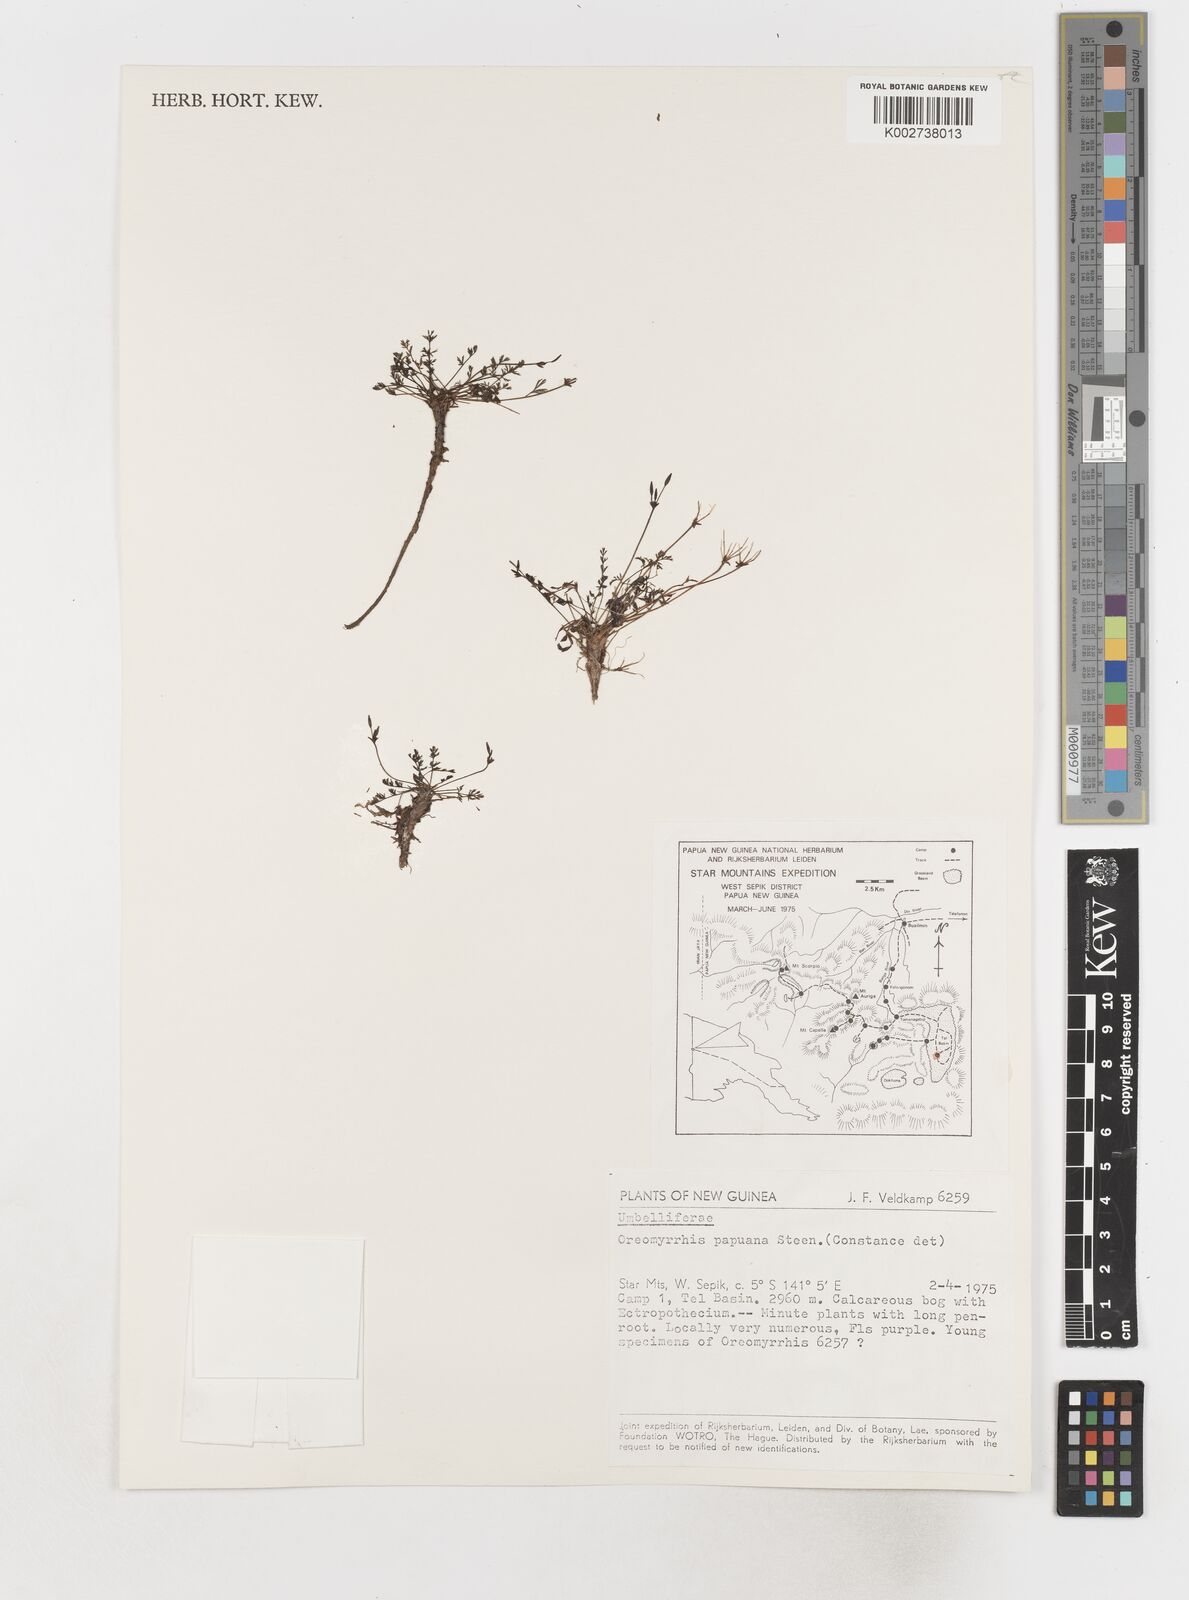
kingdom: Plantae
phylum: Tracheophyta
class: Magnoliopsida
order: Apiales
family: Apiaceae
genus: Chaerophyllum
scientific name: Chaerophyllum papuanum
